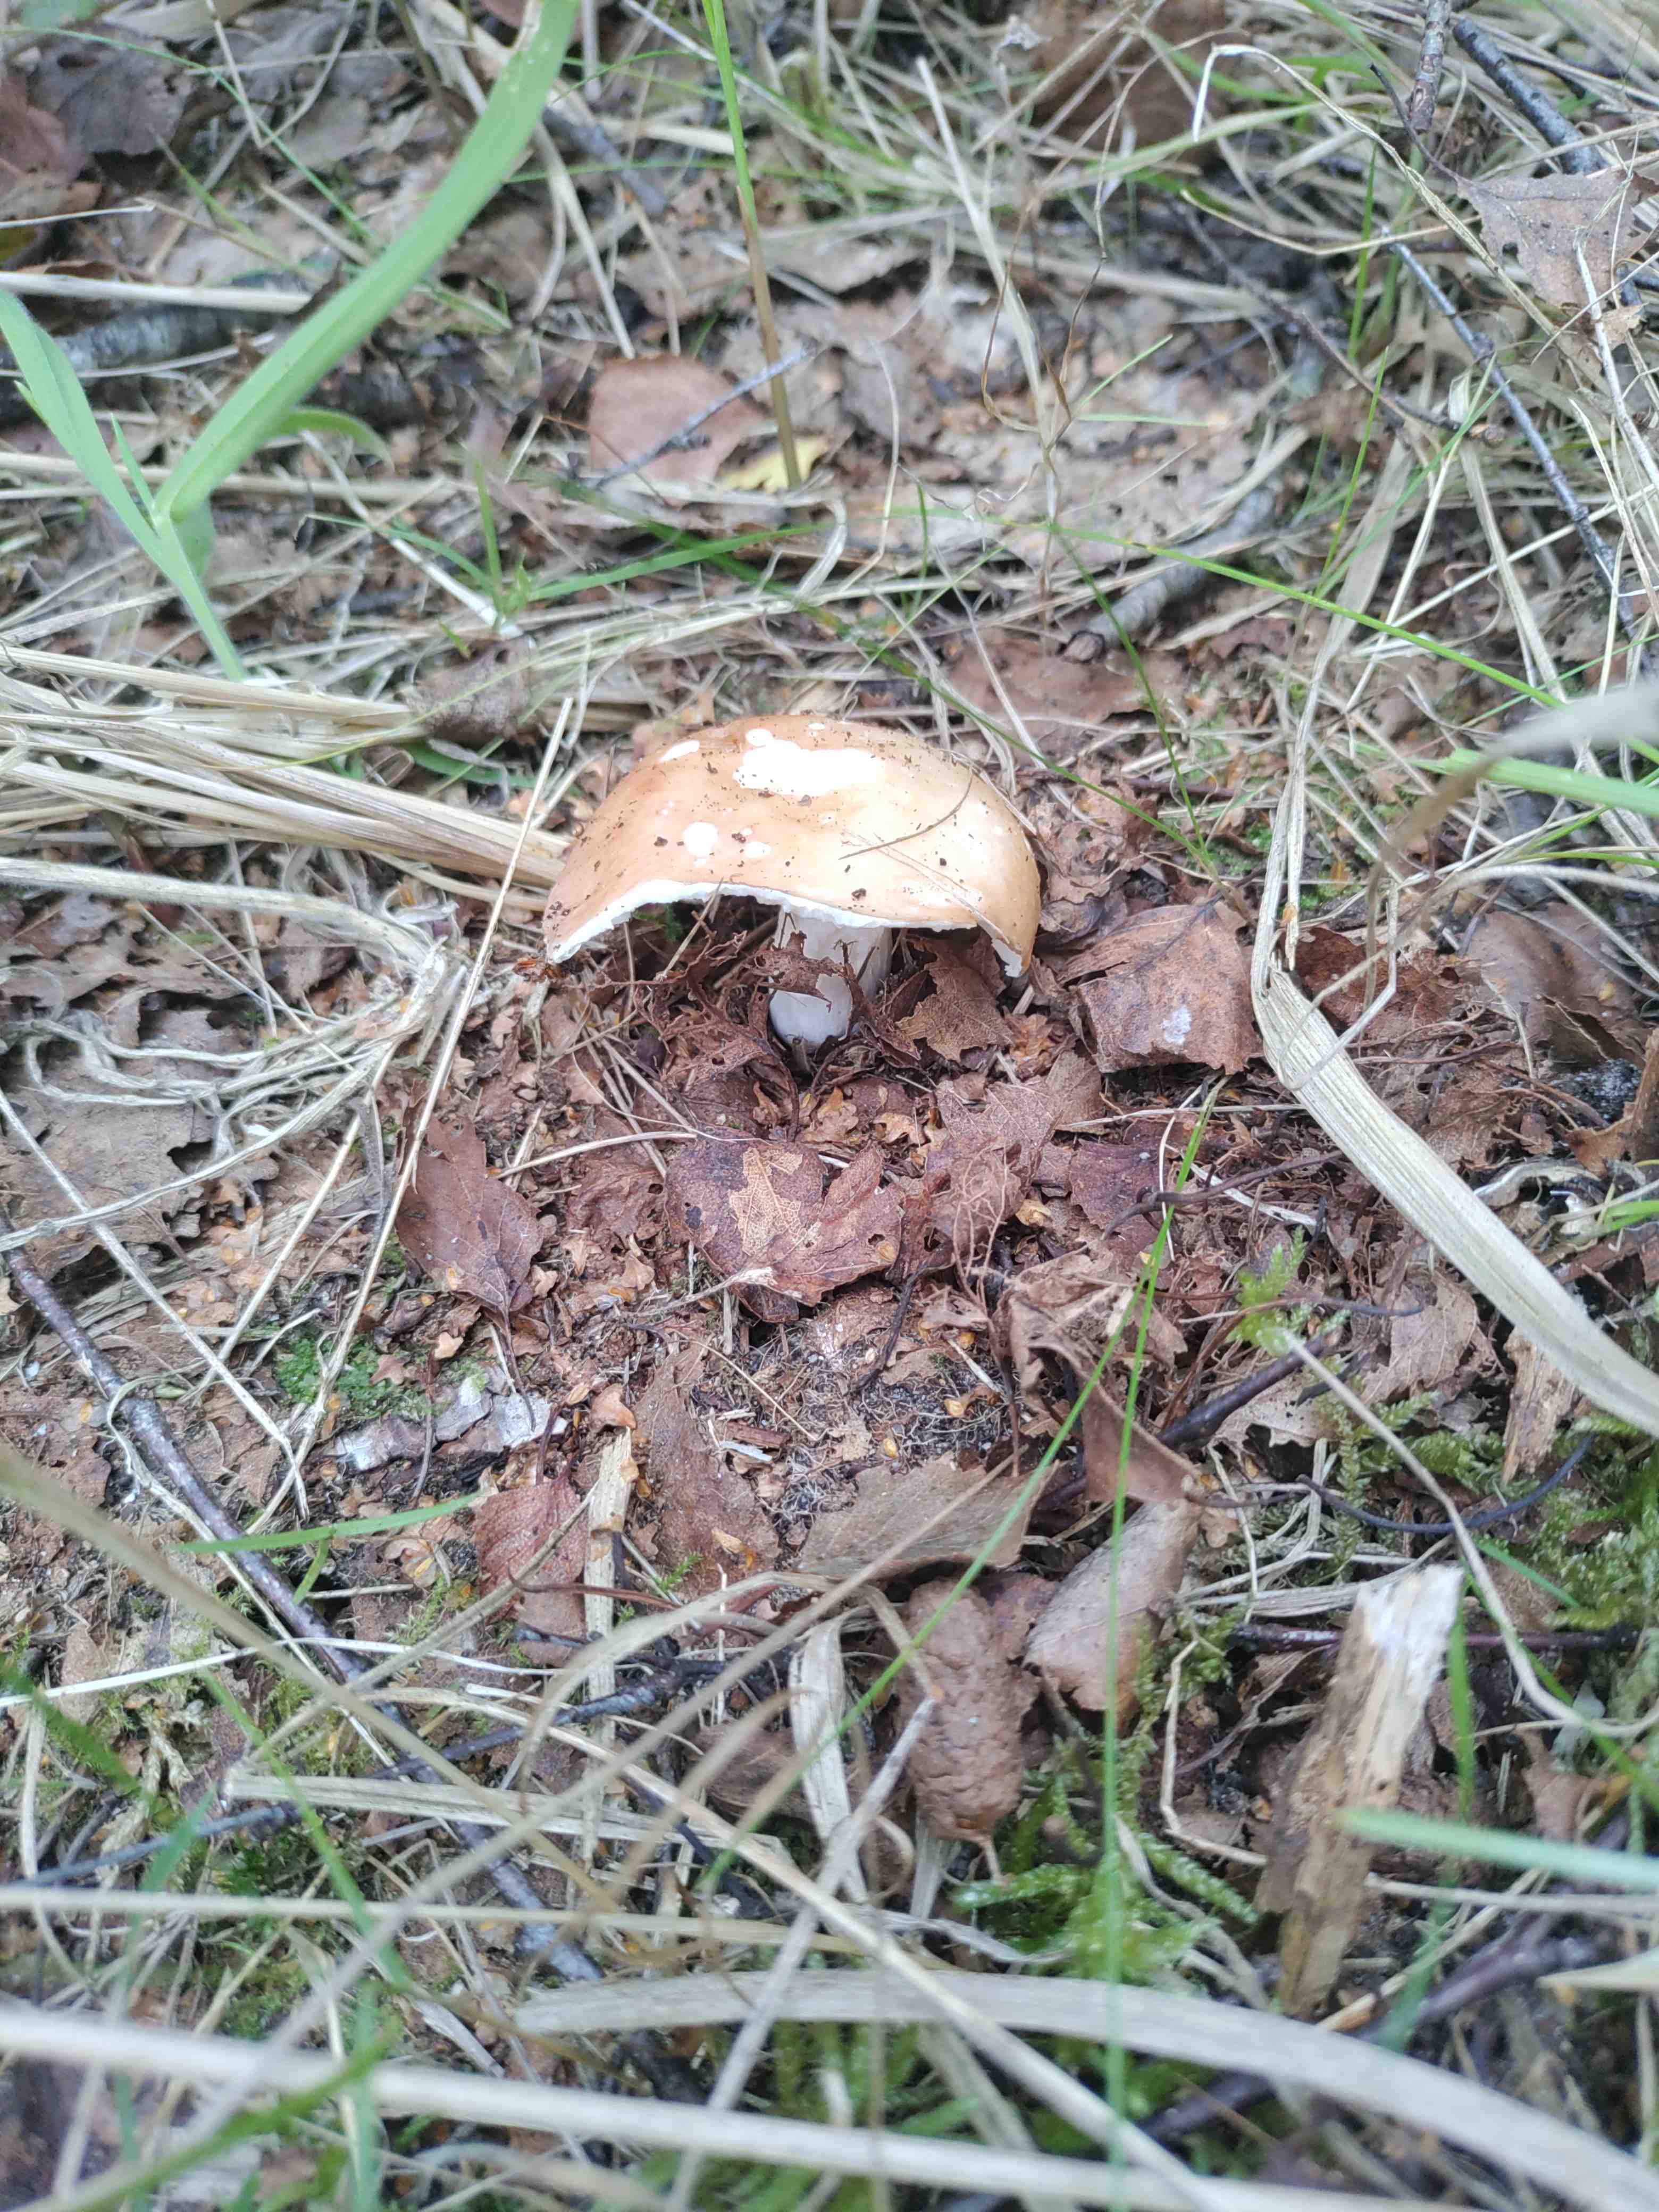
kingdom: Fungi
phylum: Basidiomycota
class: Agaricomycetes
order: Russulales
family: Russulaceae
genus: Russula
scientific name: Russula
